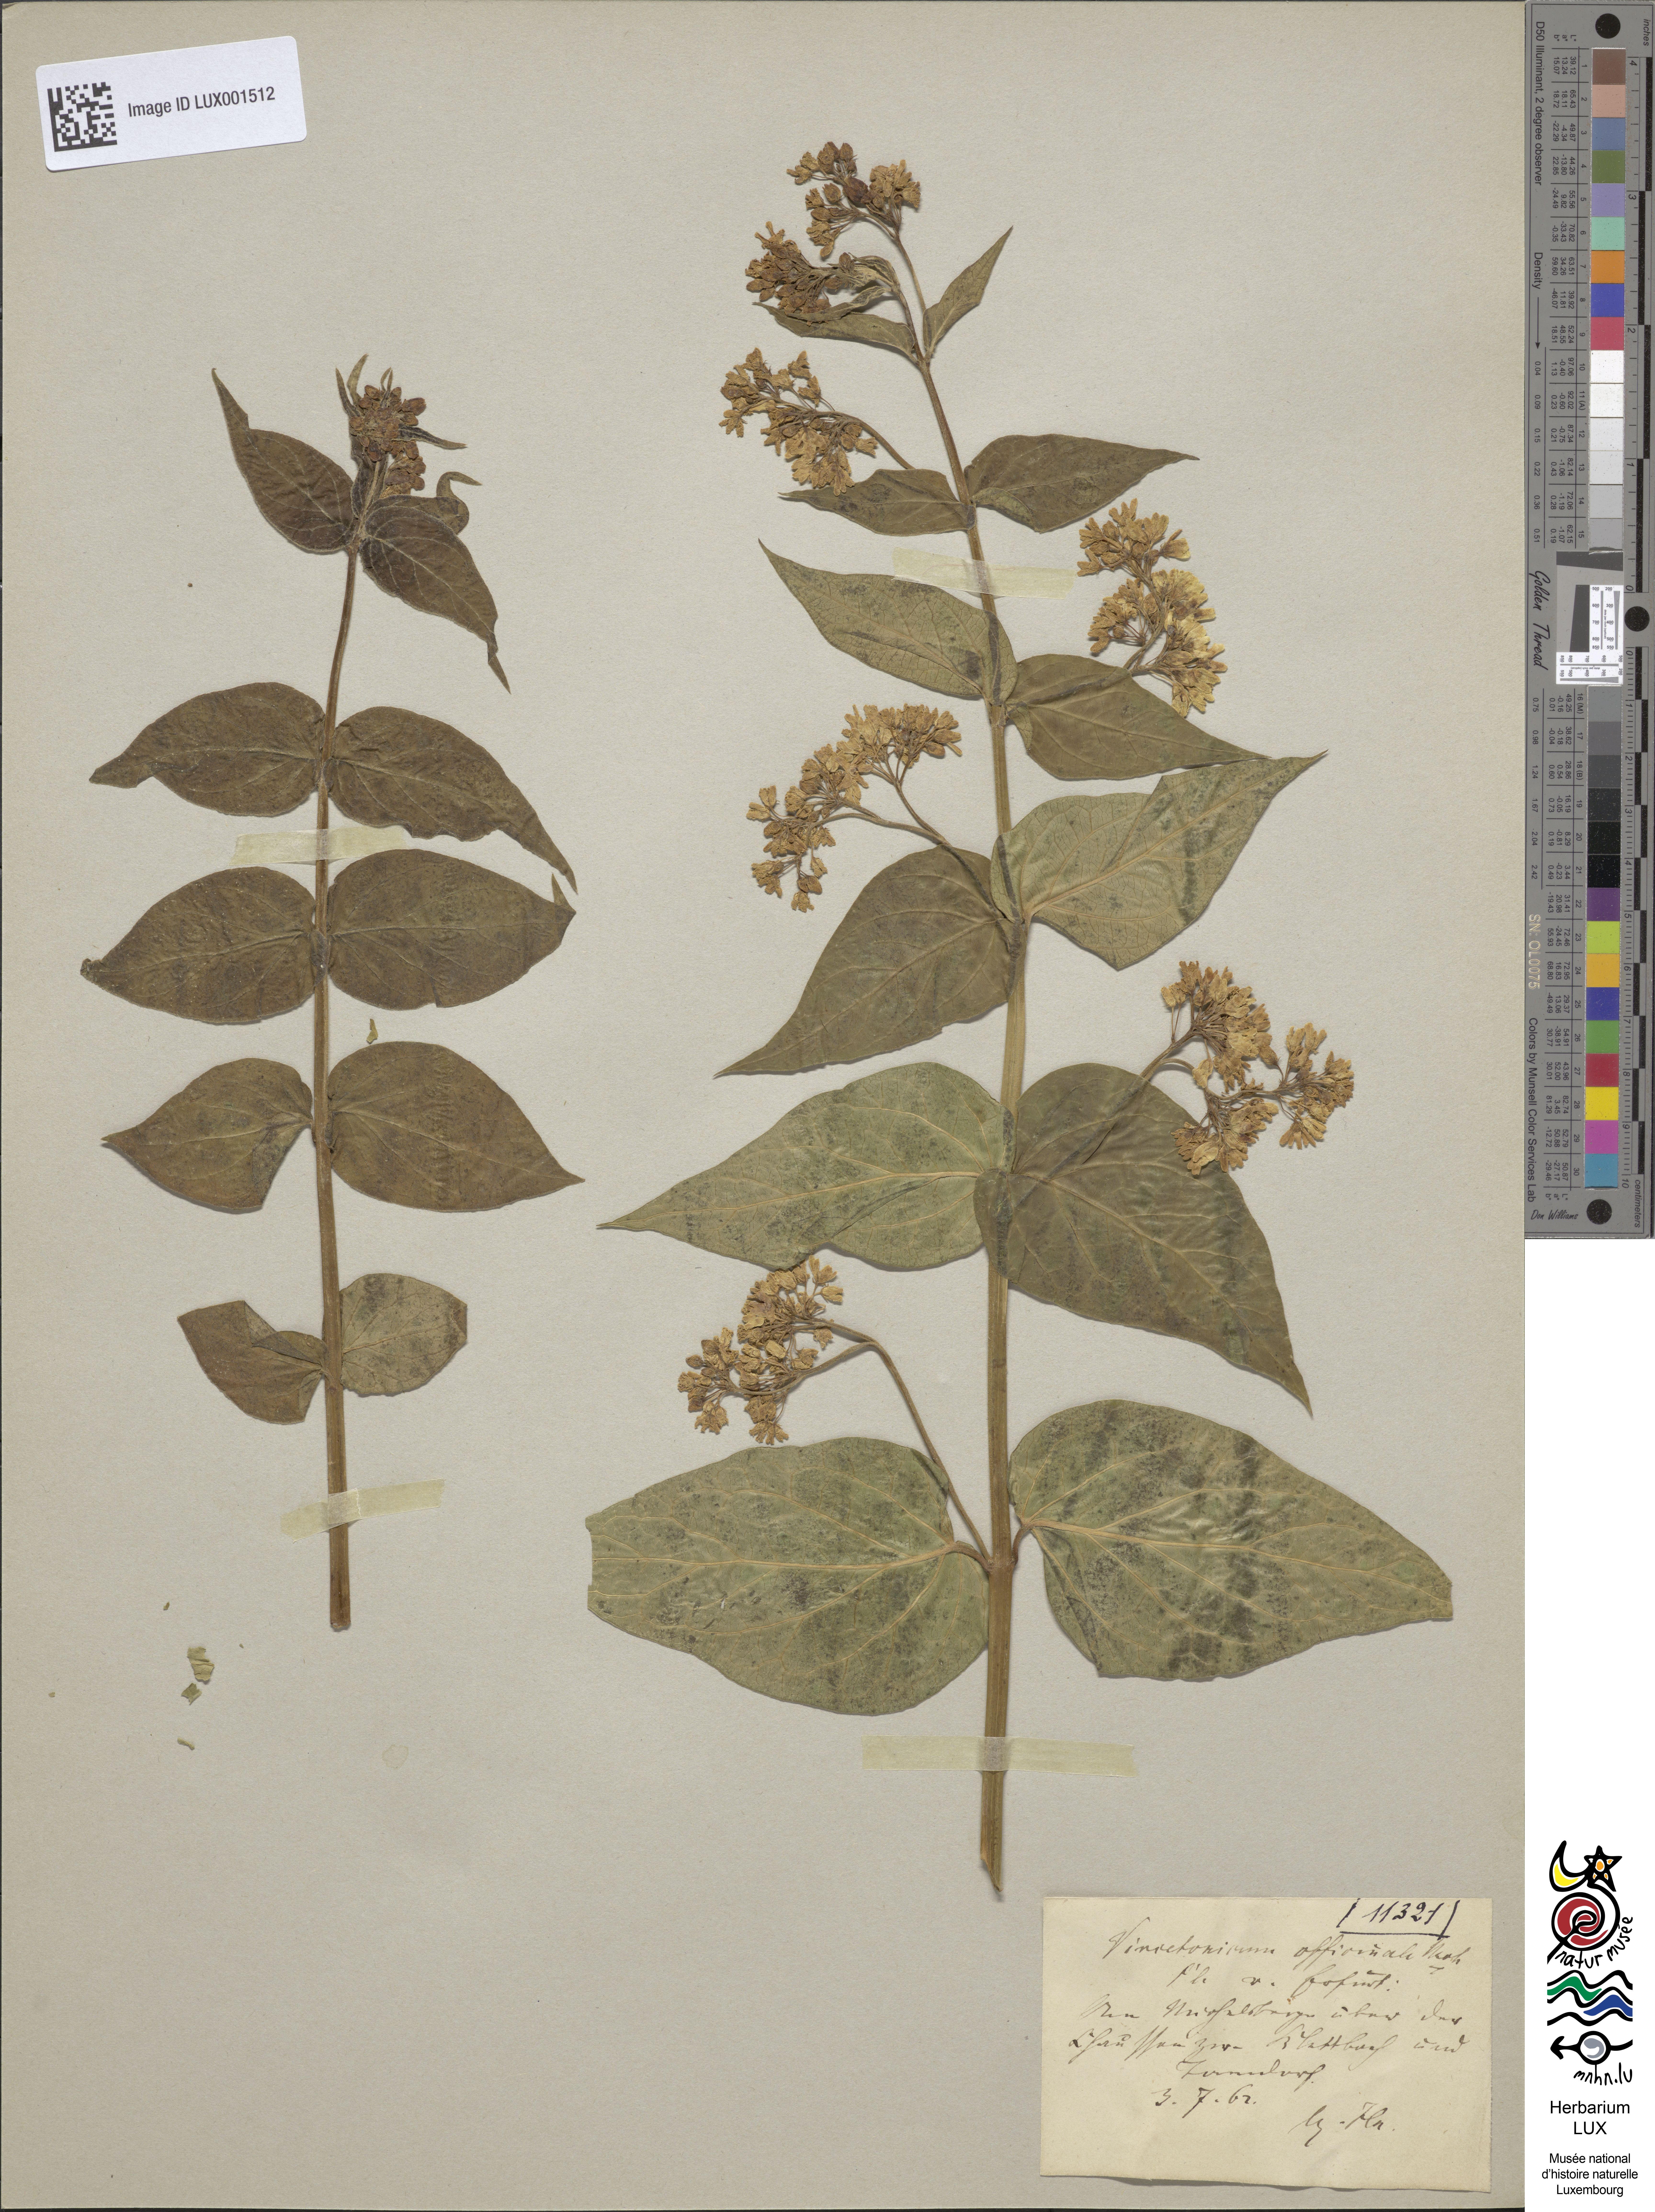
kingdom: Plantae
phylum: Tracheophyta
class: Magnoliopsida
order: Gentianales
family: Apocynaceae
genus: Vincetoxicum
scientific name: Vincetoxicum hirundinaria
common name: White swallowwort
